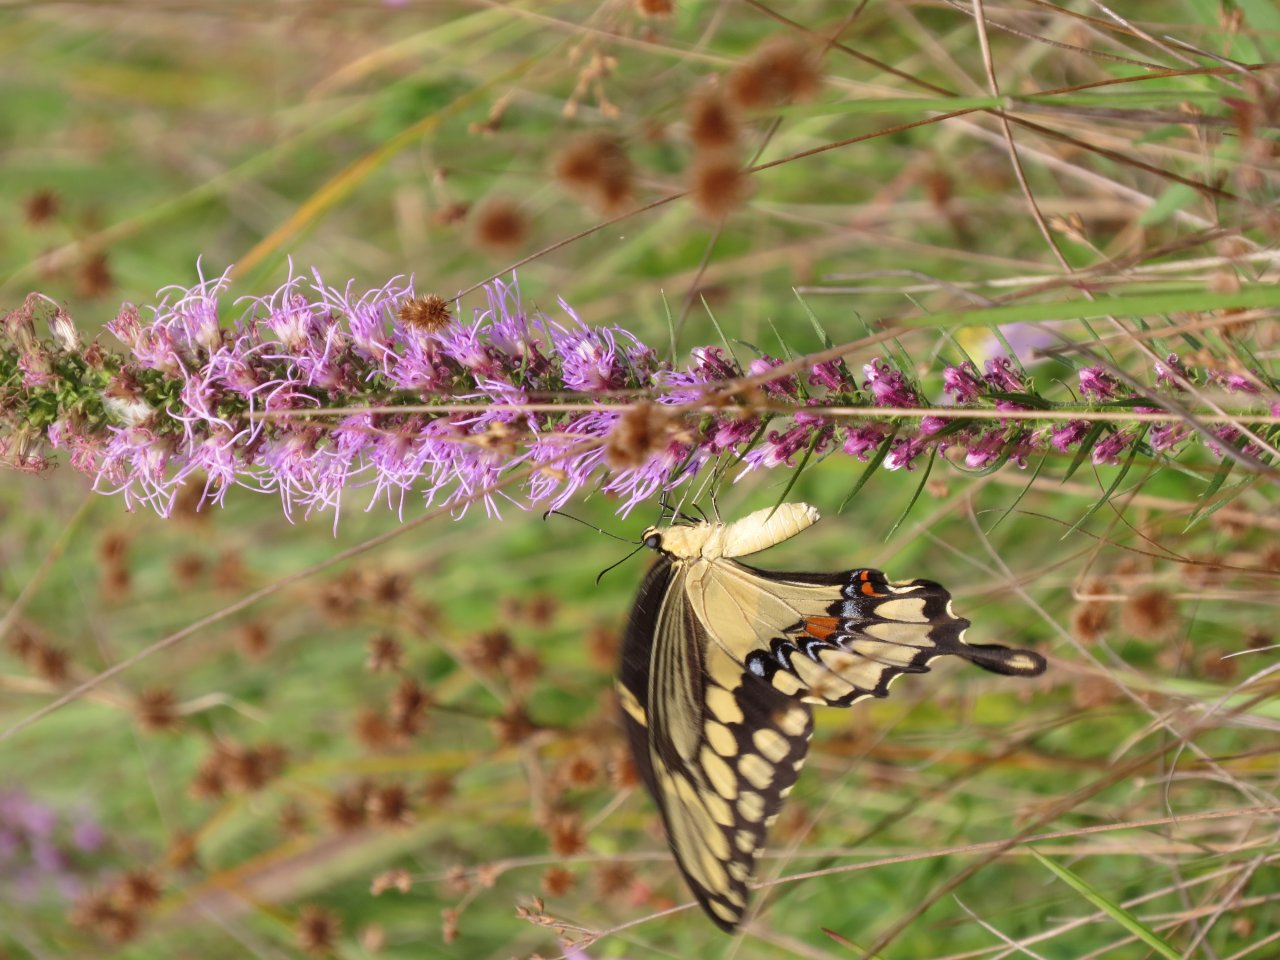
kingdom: Animalia
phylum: Arthropoda
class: Insecta
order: Lepidoptera
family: Papilionidae
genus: Papilio
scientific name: Papilio cresphontes
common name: Eastern Giant Swallowtail
